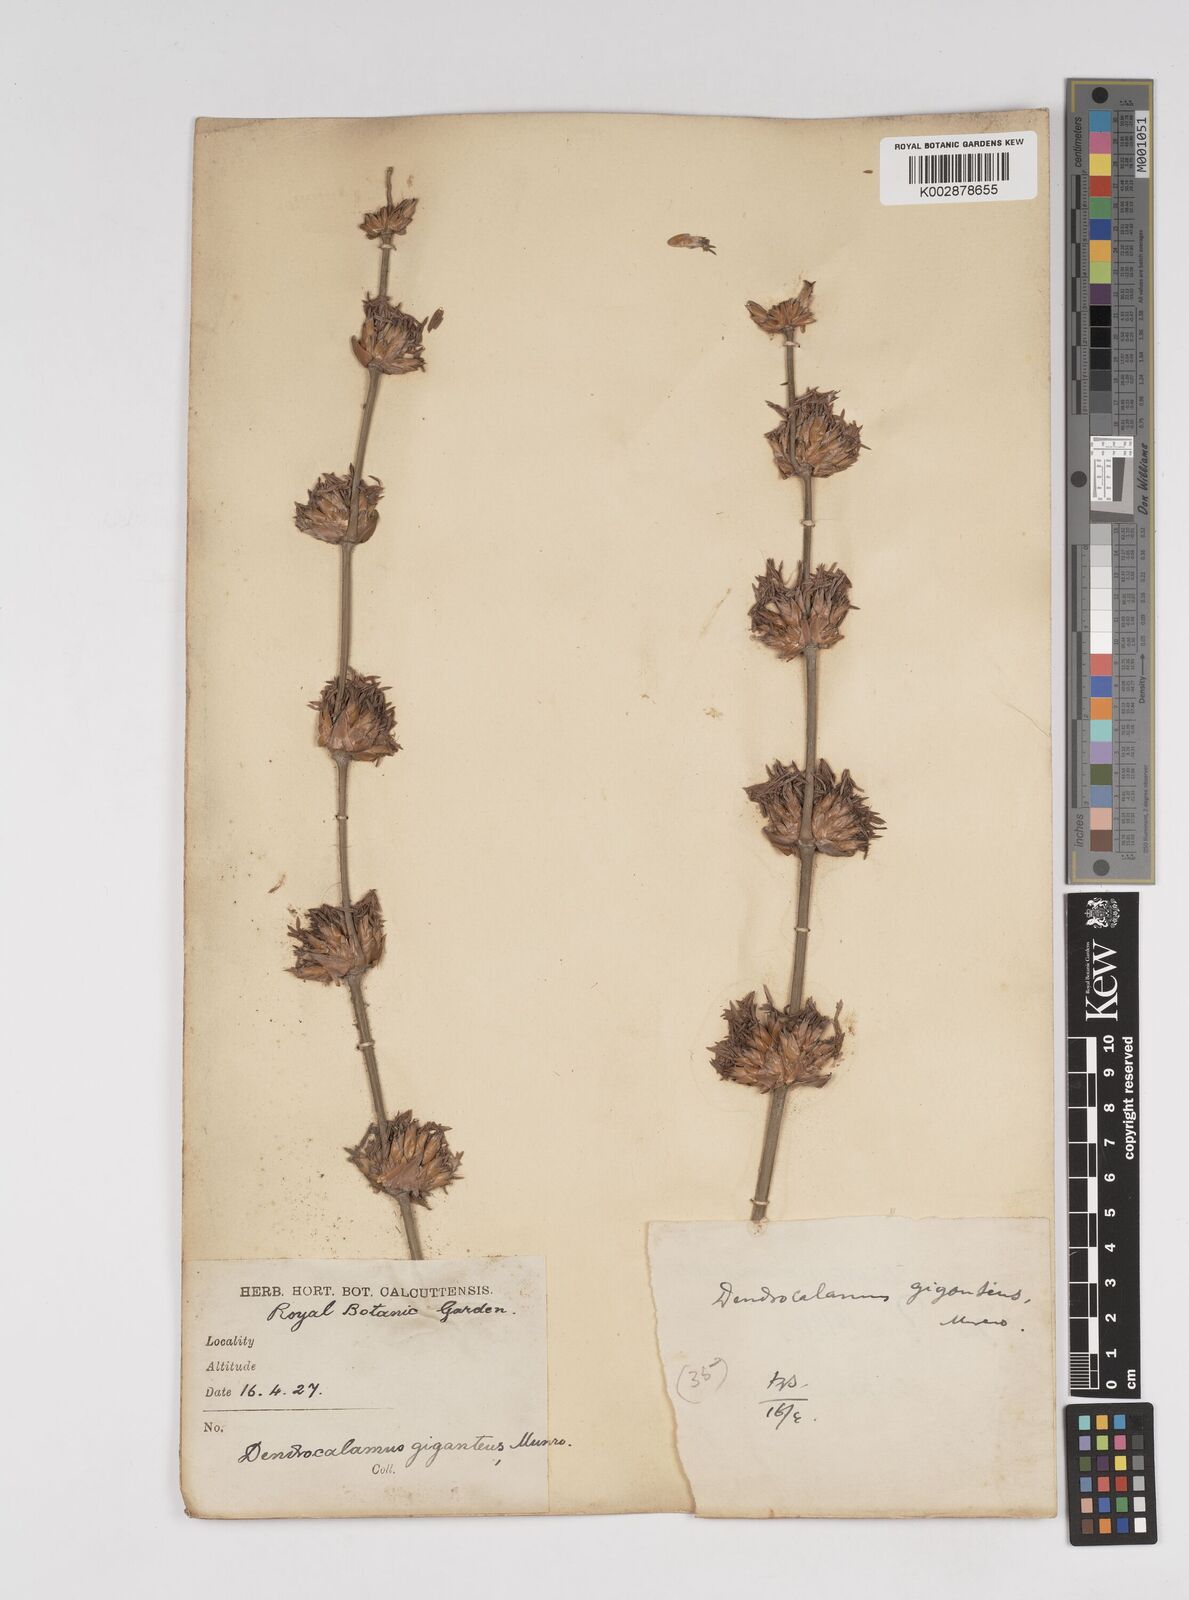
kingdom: Plantae
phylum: Tracheophyta
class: Liliopsida
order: Poales
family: Poaceae
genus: Dendrocalamus
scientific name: Dendrocalamus giganteus
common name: Giant bamboo
